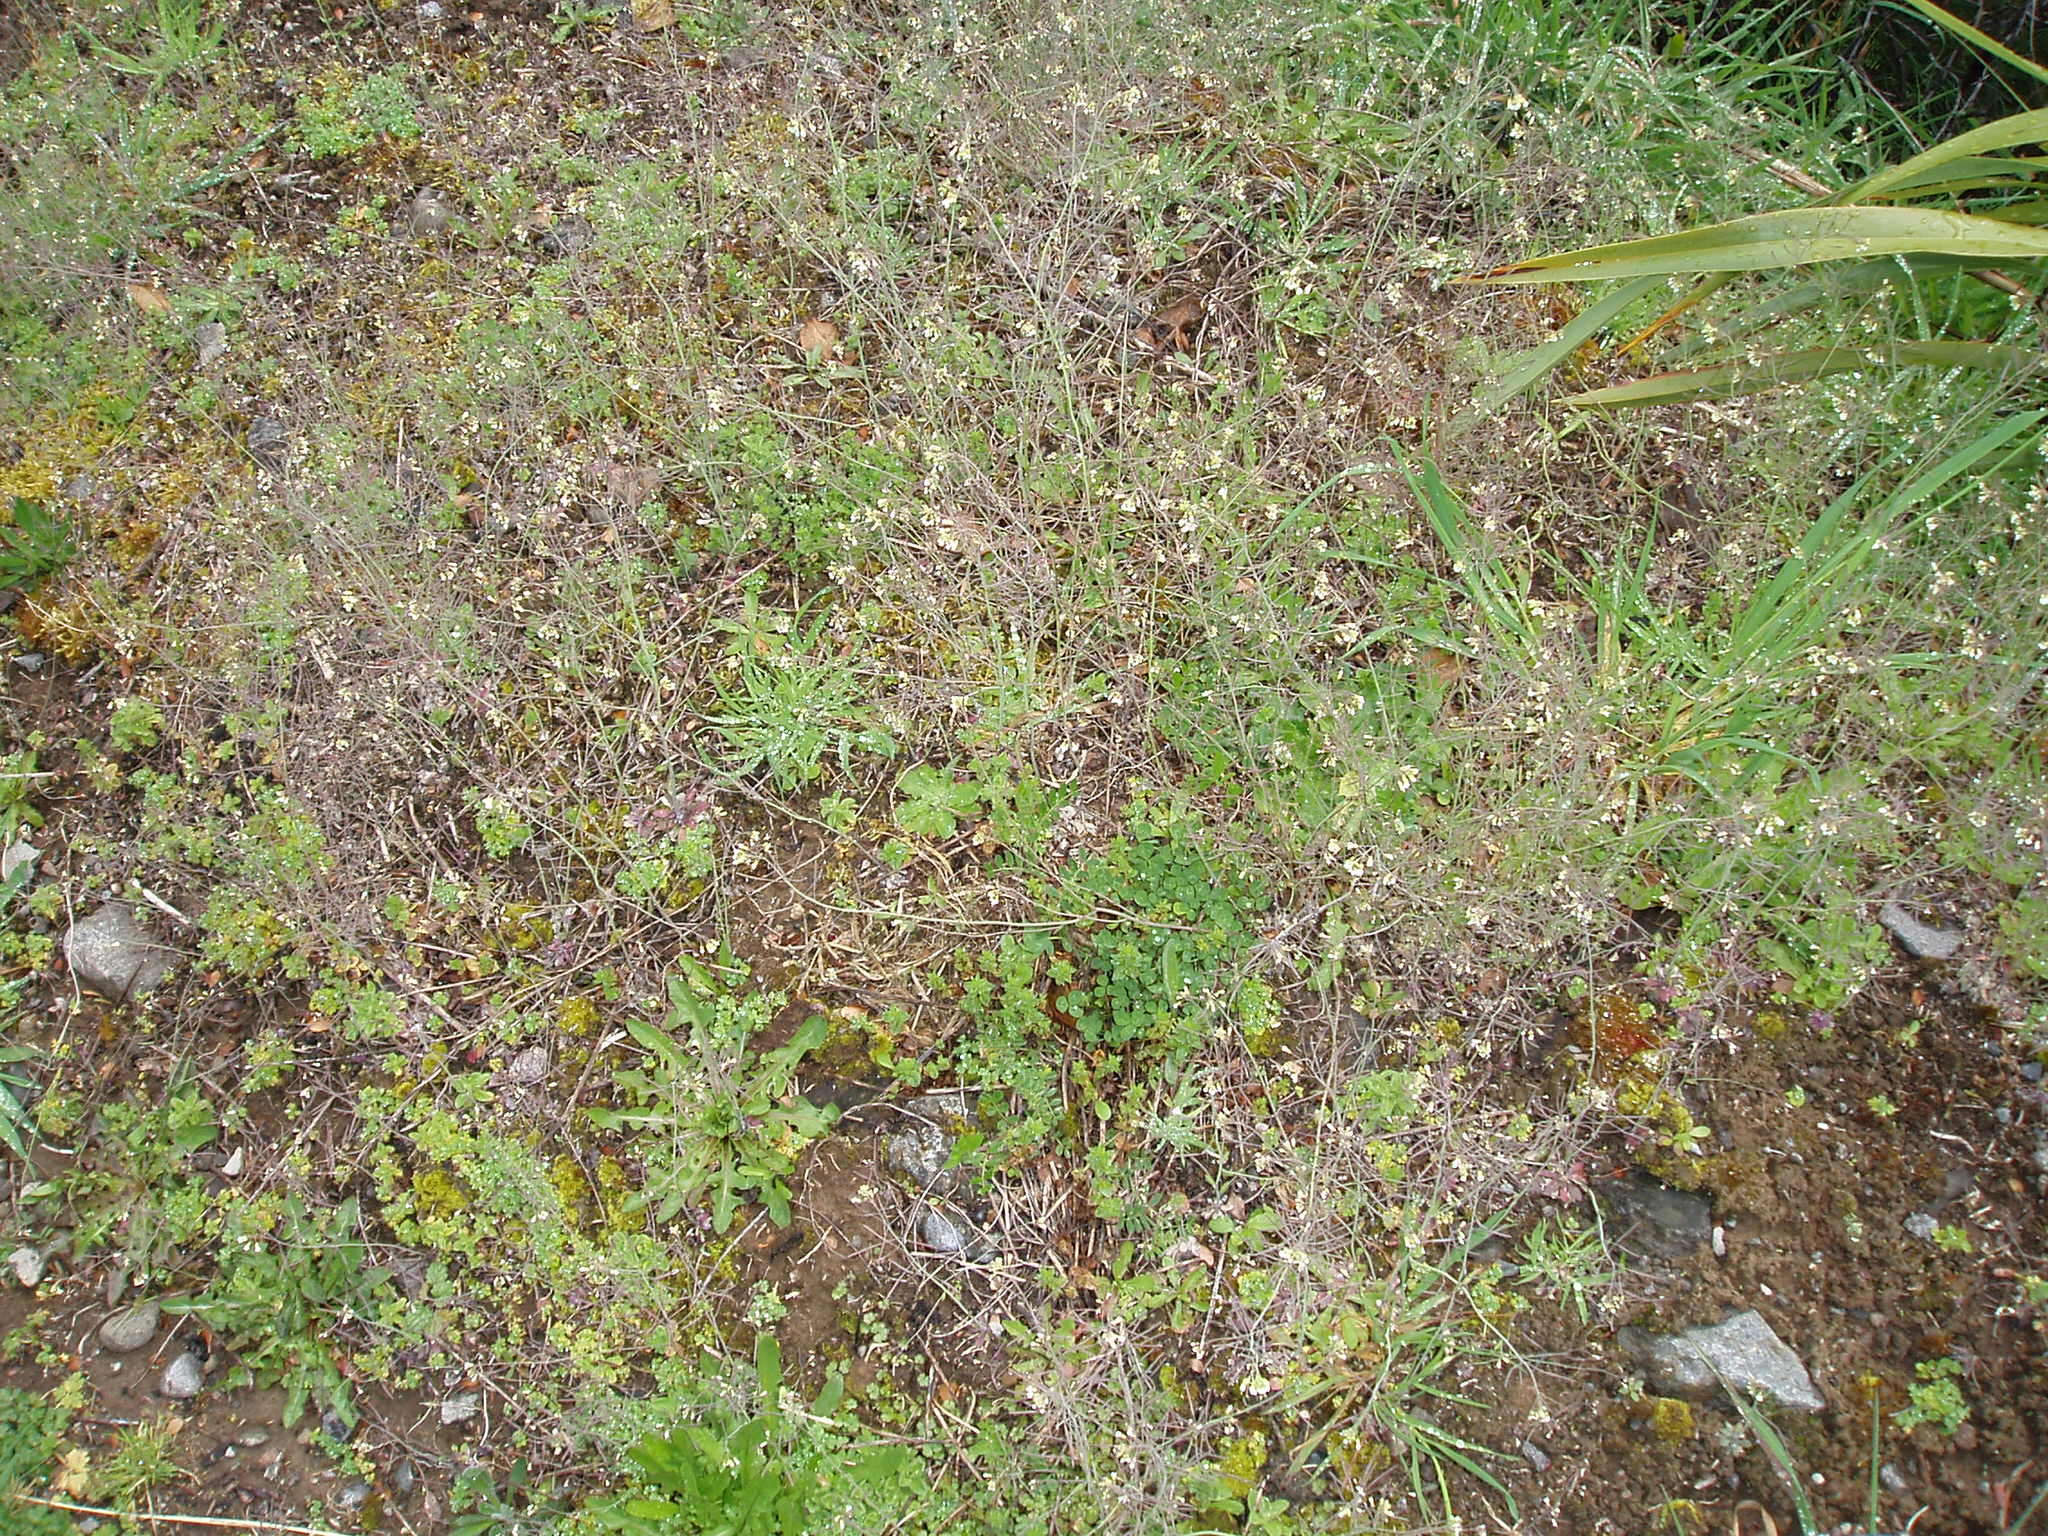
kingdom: Plantae
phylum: Tracheophyta
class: Magnoliopsida
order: Brassicales
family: Brassicaceae
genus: Arabidopsis
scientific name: Arabidopsis thaliana
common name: Thale cress
